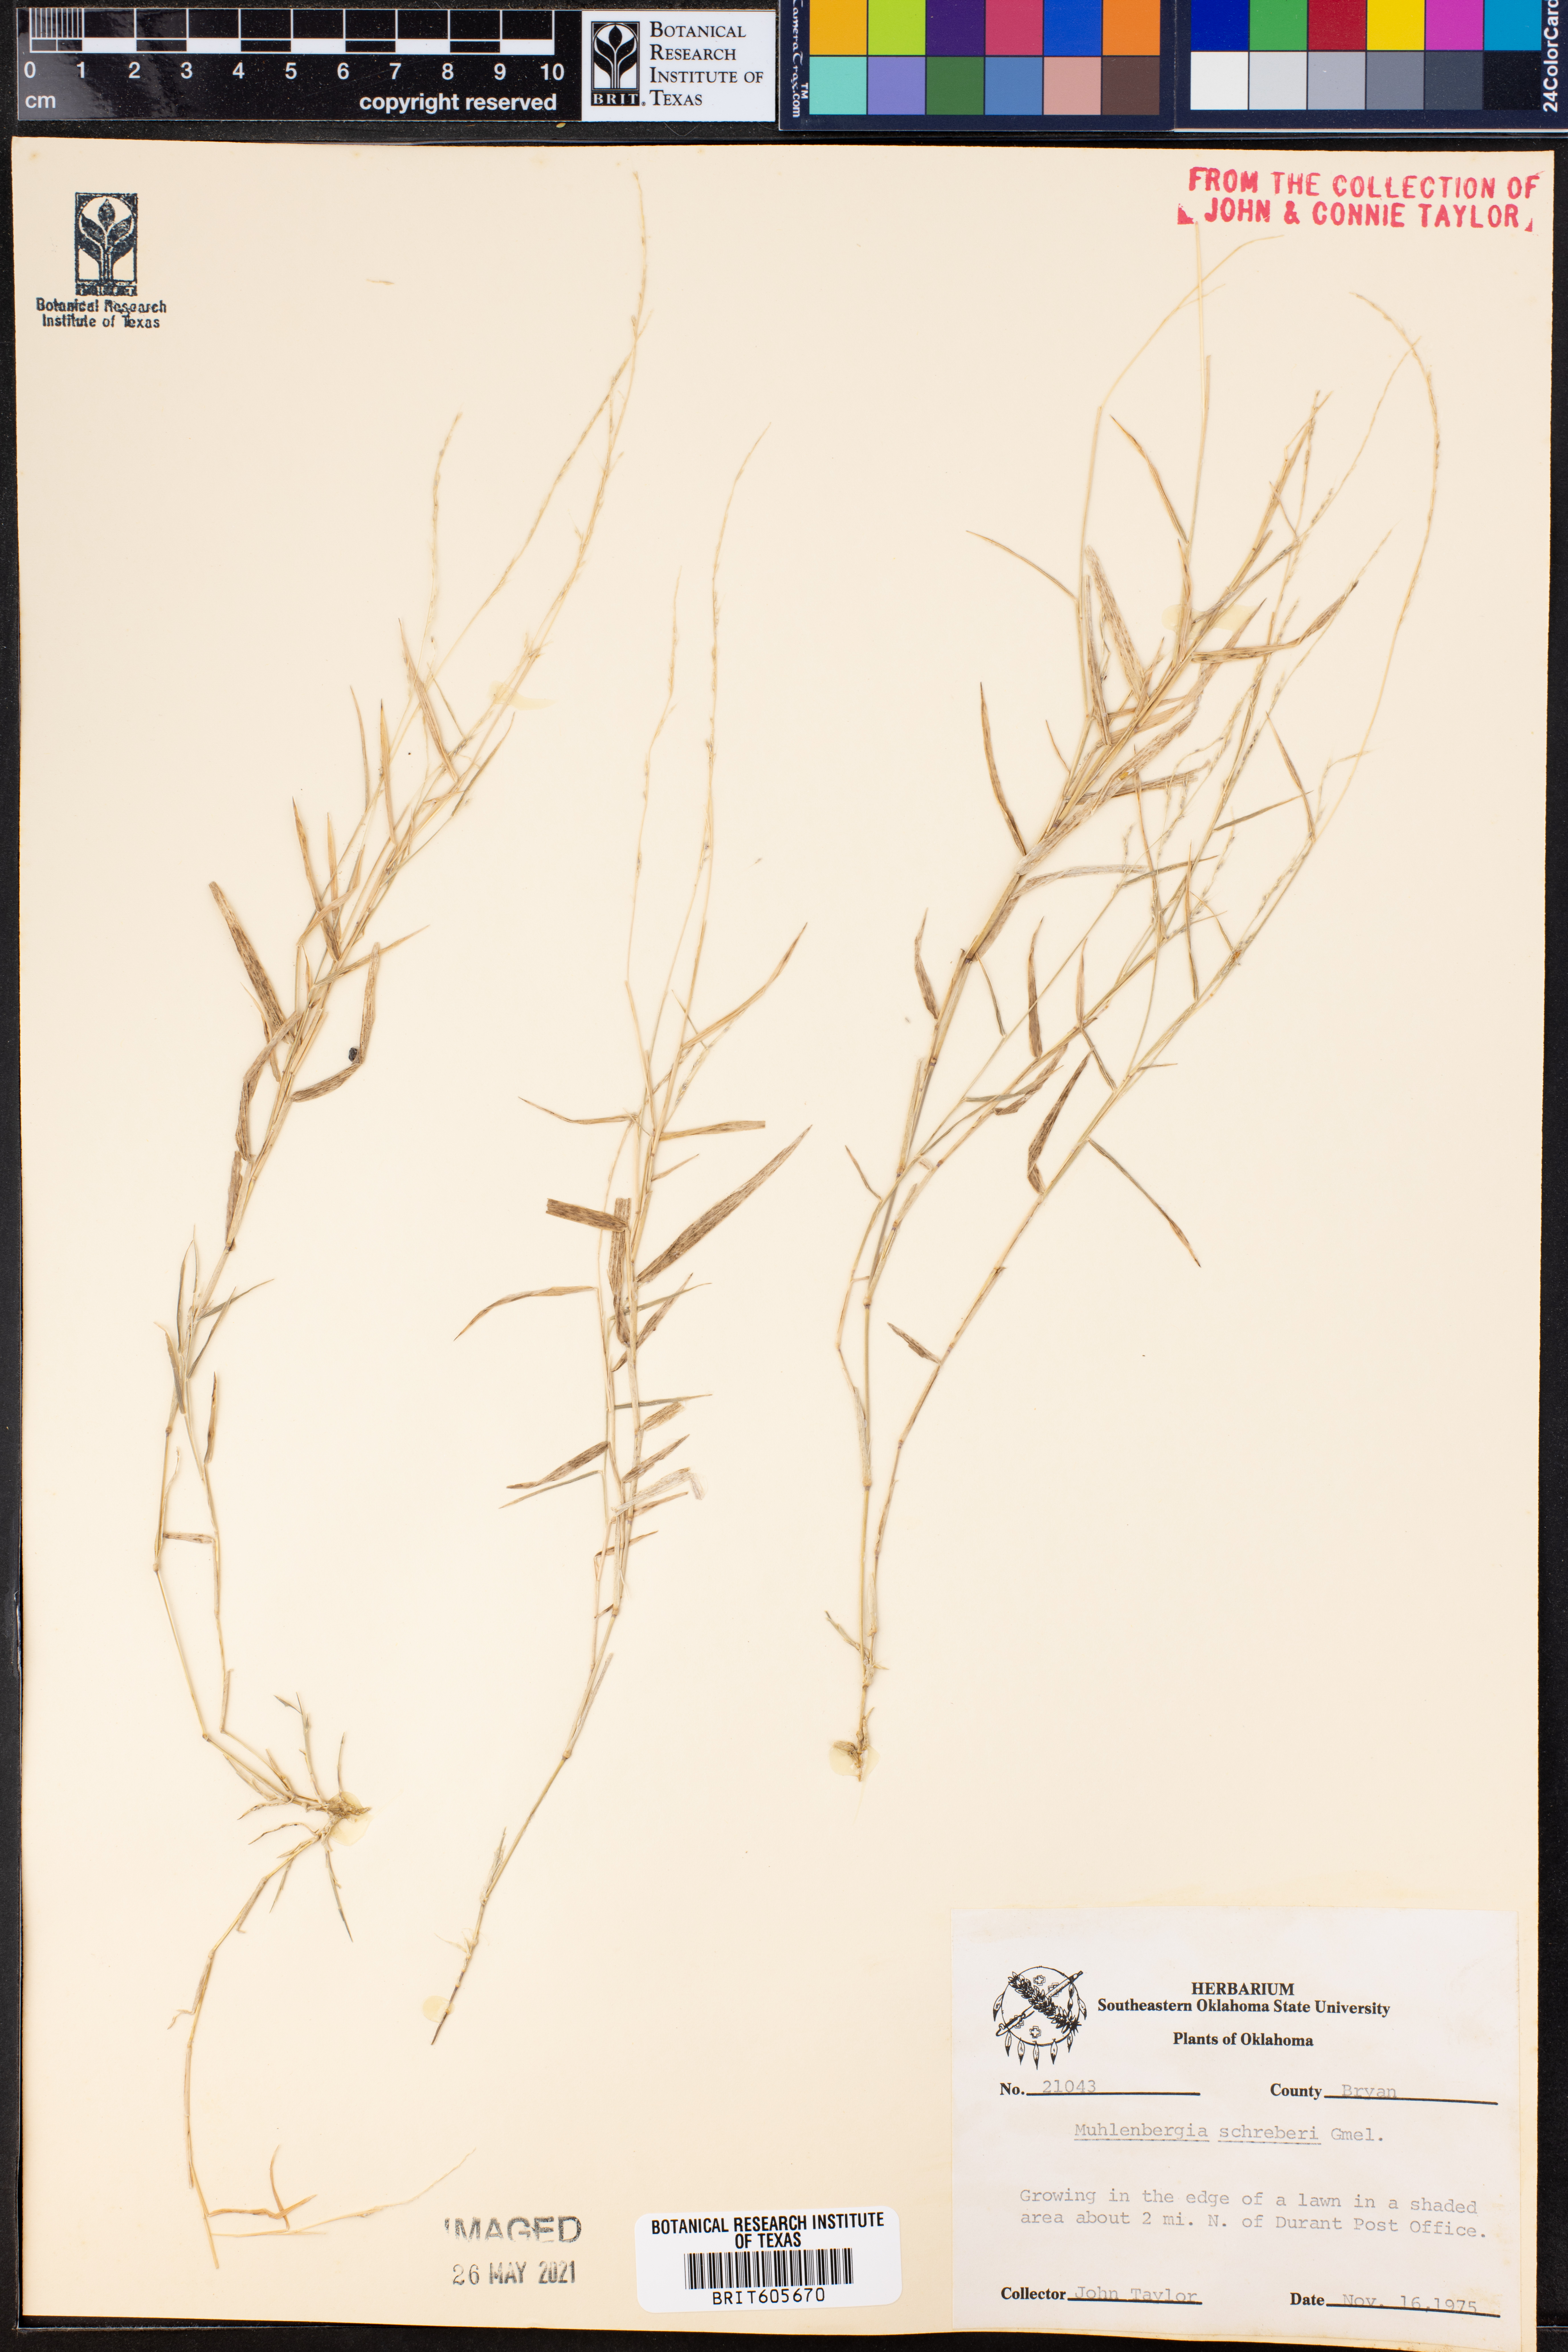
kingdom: Plantae
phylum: Tracheophyta
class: Liliopsida
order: Poales
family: Poaceae
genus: Muhlenbergia
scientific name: Muhlenbergia schreberi
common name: Nimblewill
